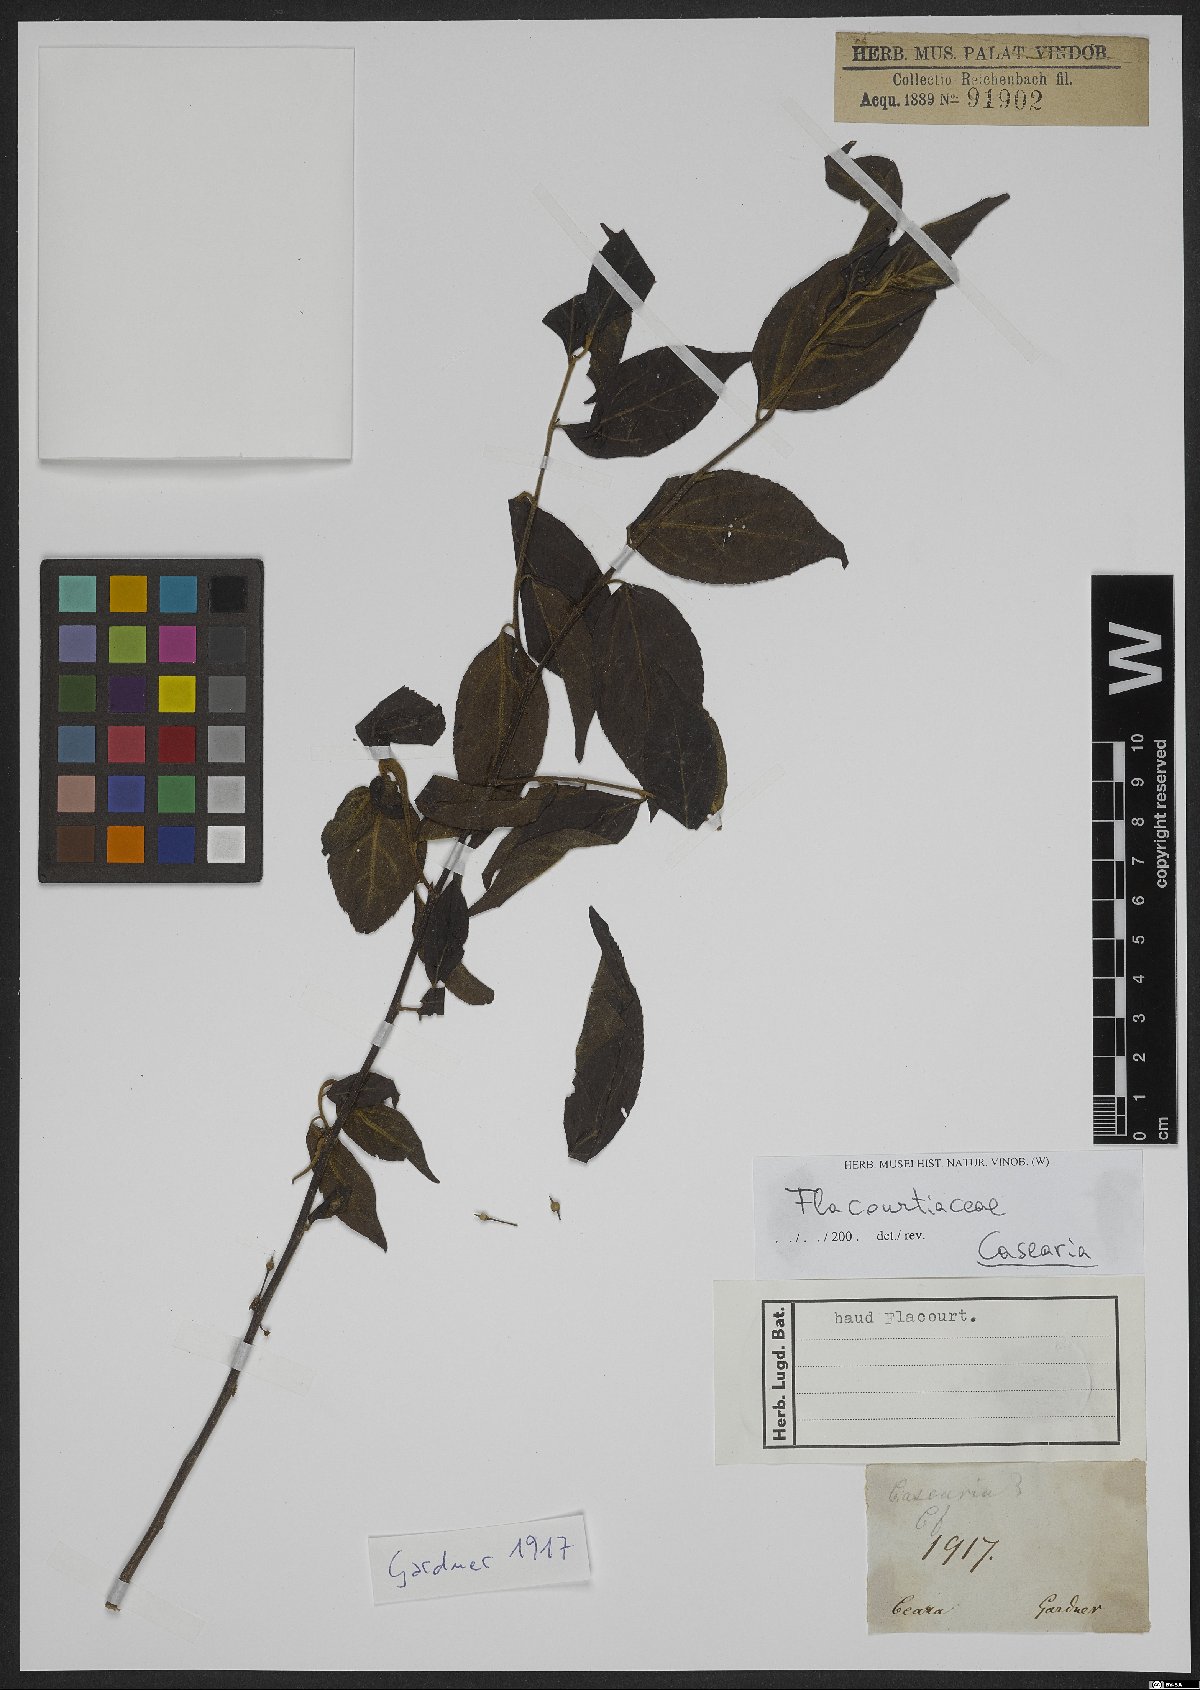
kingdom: Plantae
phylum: Tracheophyta
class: Magnoliopsida
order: Malpighiales
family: Salicaceae
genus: Casearia
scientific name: Casearia
